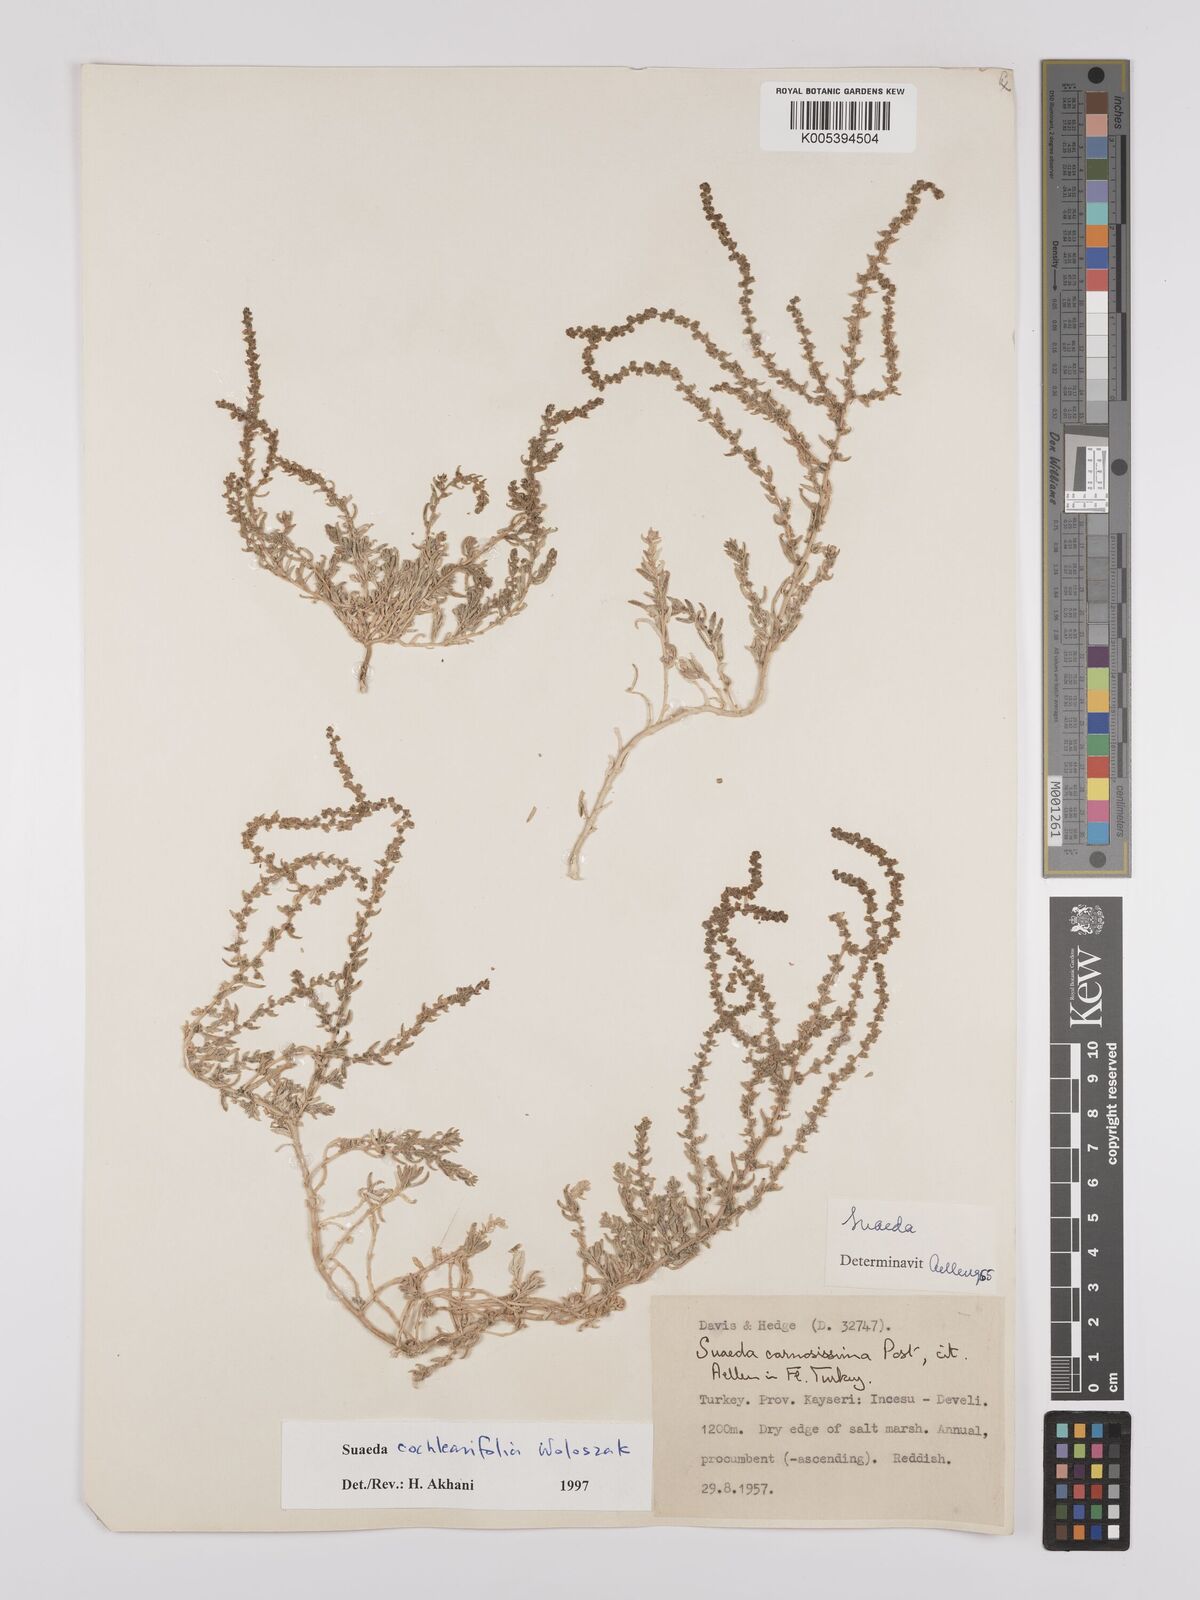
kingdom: Plantae
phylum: Tracheophyta
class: Magnoliopsida
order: Caryophyllales
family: Amaranthaceae
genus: Suaeda
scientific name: Suaeda carnosissima
